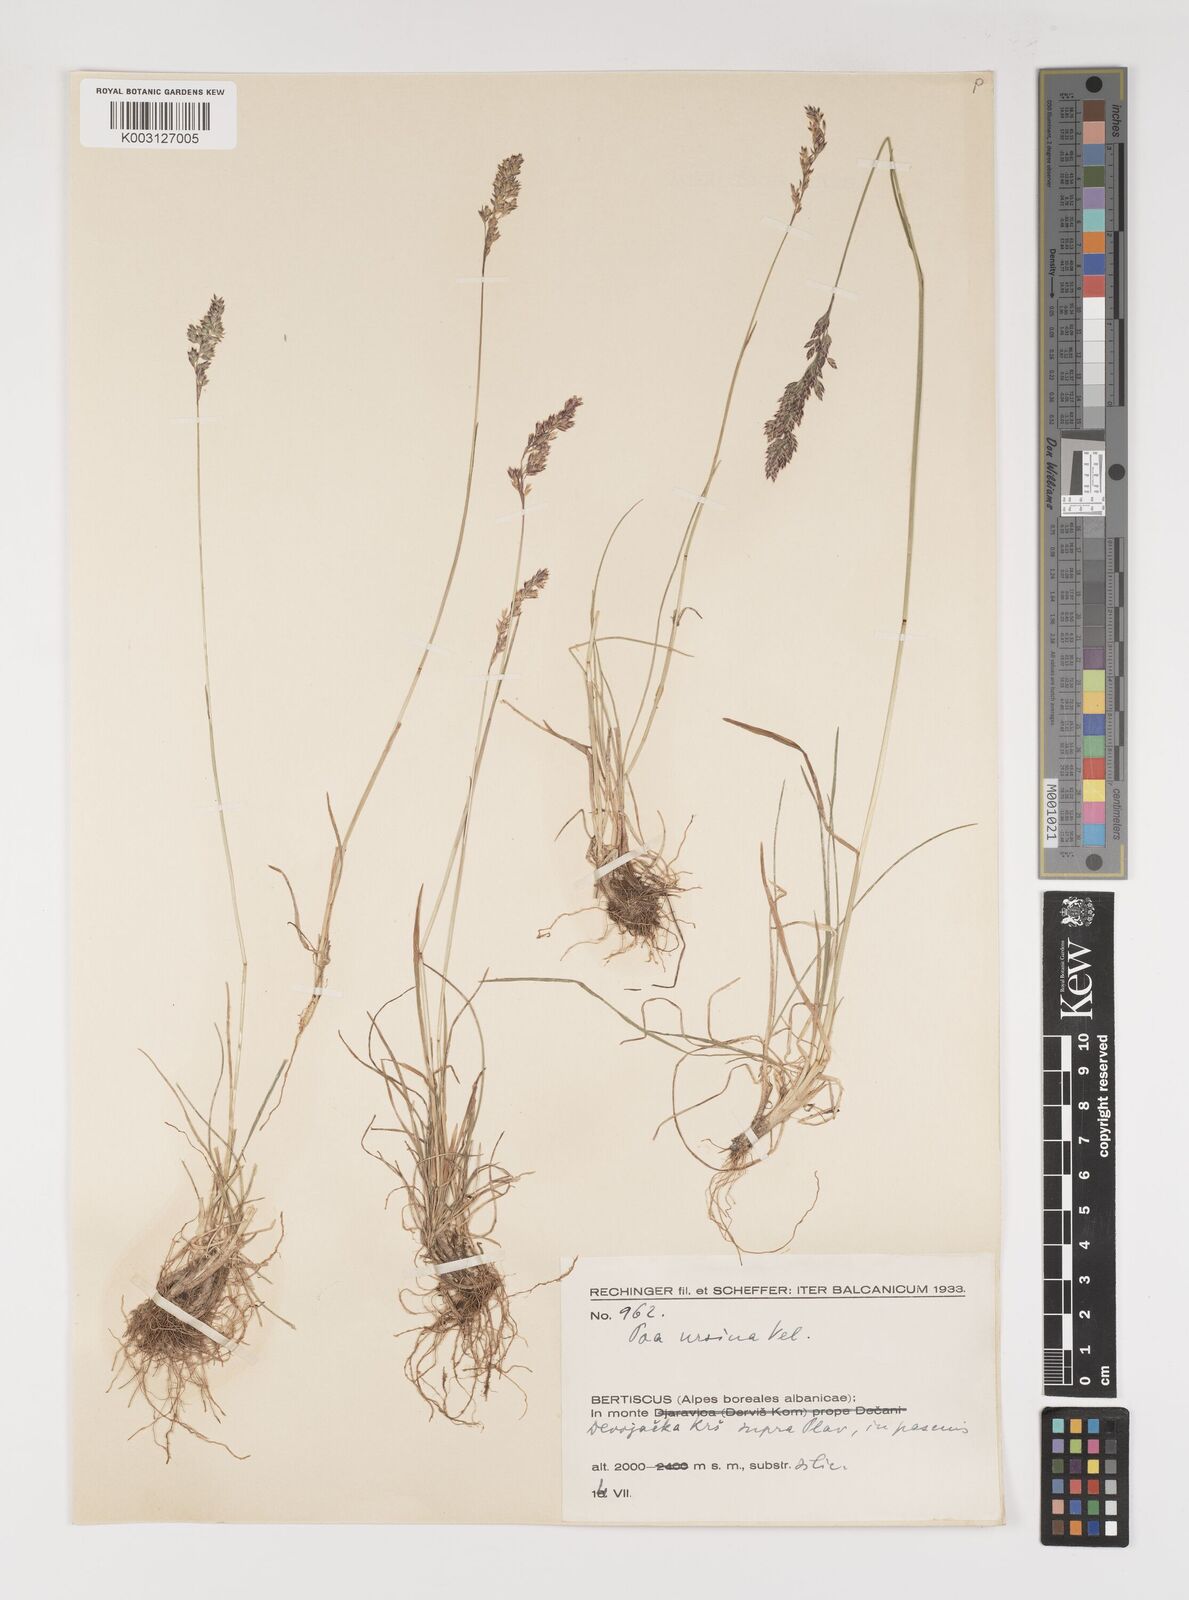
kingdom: Plantae
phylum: Tracheophyta
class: Liliopsida
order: Poales
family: Poaceae
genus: Poa
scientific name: Poa ursina
